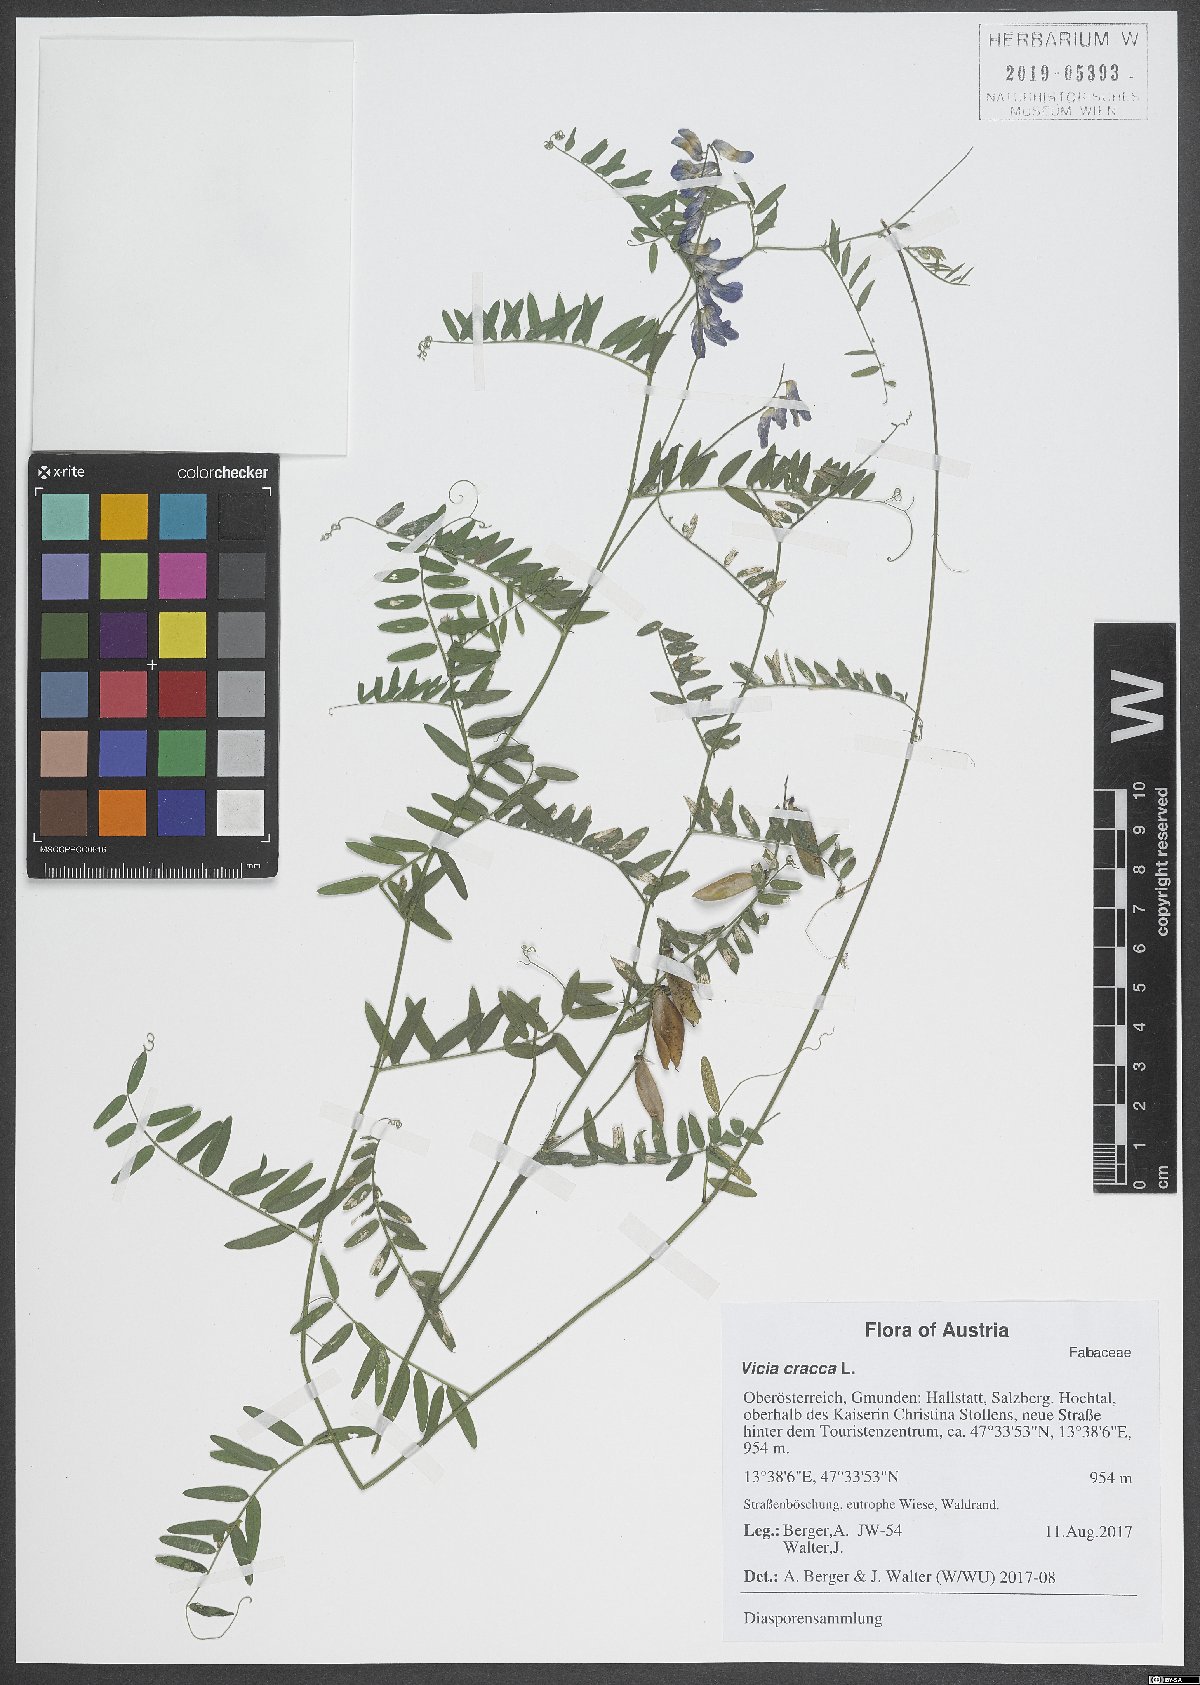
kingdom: Plantae
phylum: Tracheophyta
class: Magnoliopsida
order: Fabales
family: Fabaceae
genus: Vicia
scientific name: Vicia cracca
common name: Bird vetch
